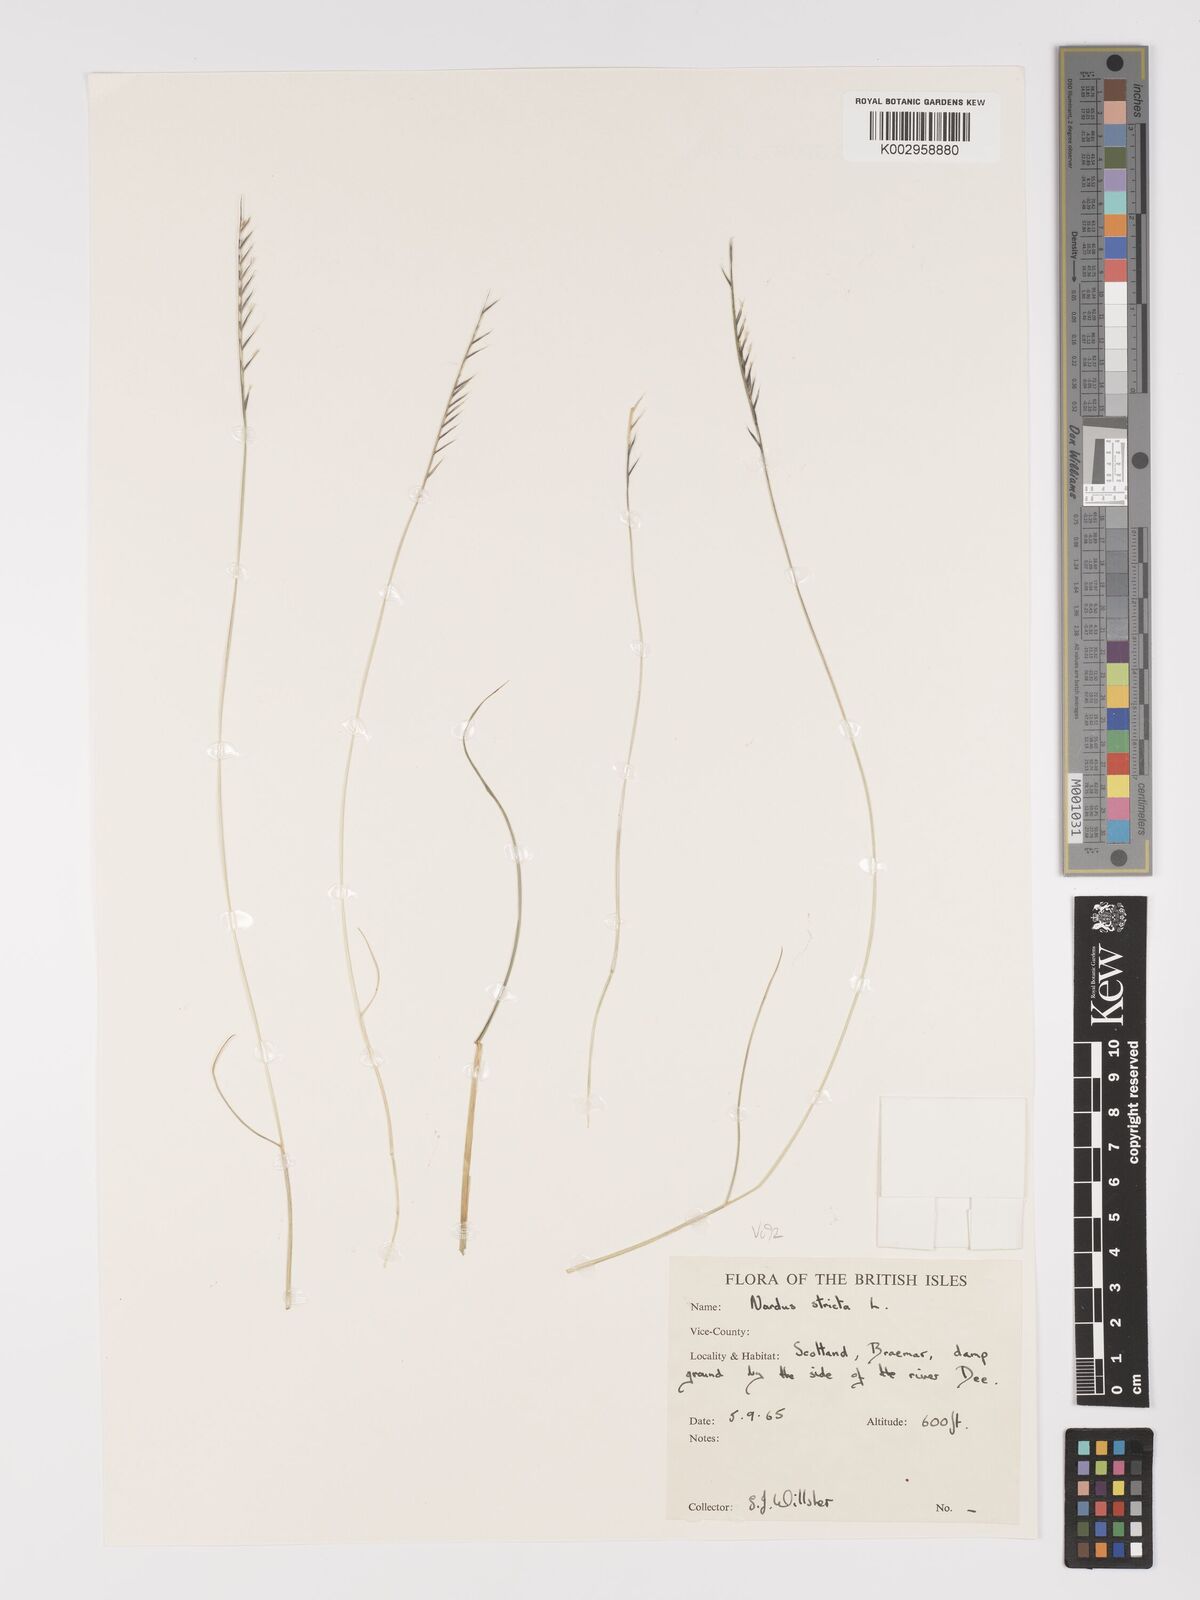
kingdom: Plantae
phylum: Tracheophyta
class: Liliopsida
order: Poales
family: Poaceae
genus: Nardus
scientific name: Nardus stricta
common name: Mat-grass
